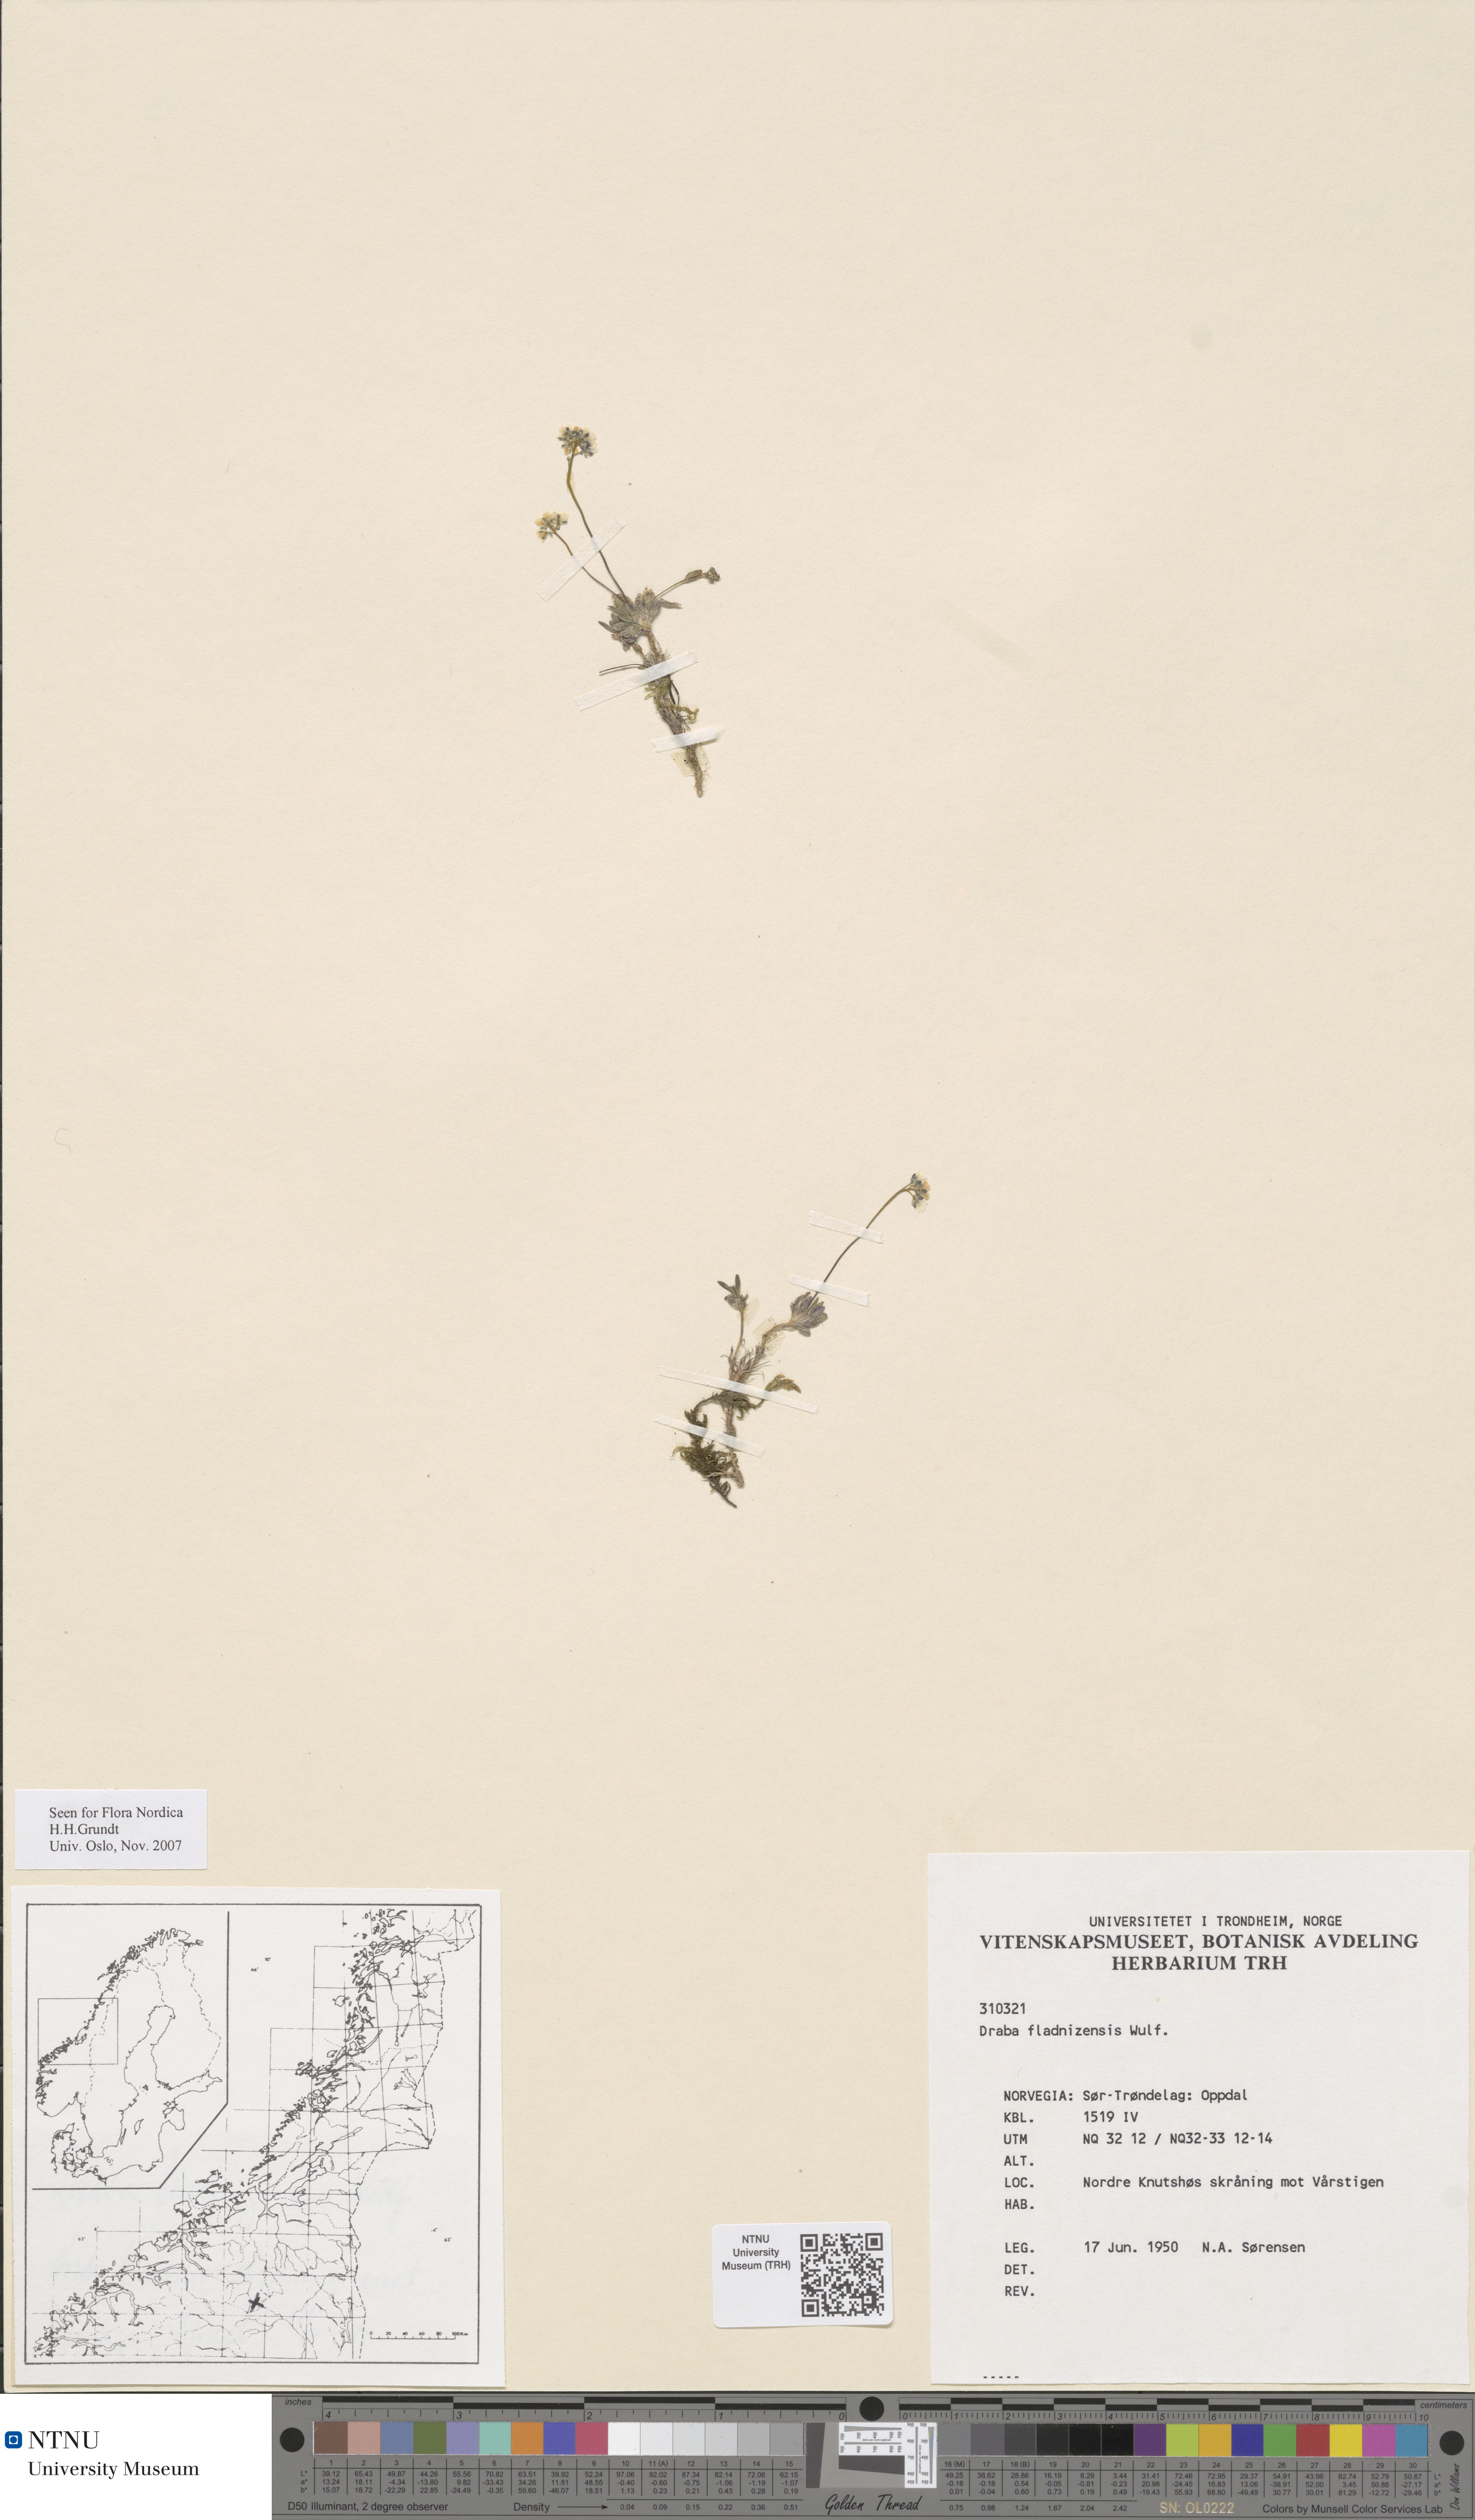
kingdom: Plantae
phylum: Tracheophyta
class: Magnoliopsida
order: Brassicales
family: Brassicaceae
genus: Draba
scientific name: Draba fladnizensis
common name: Austrian draba
